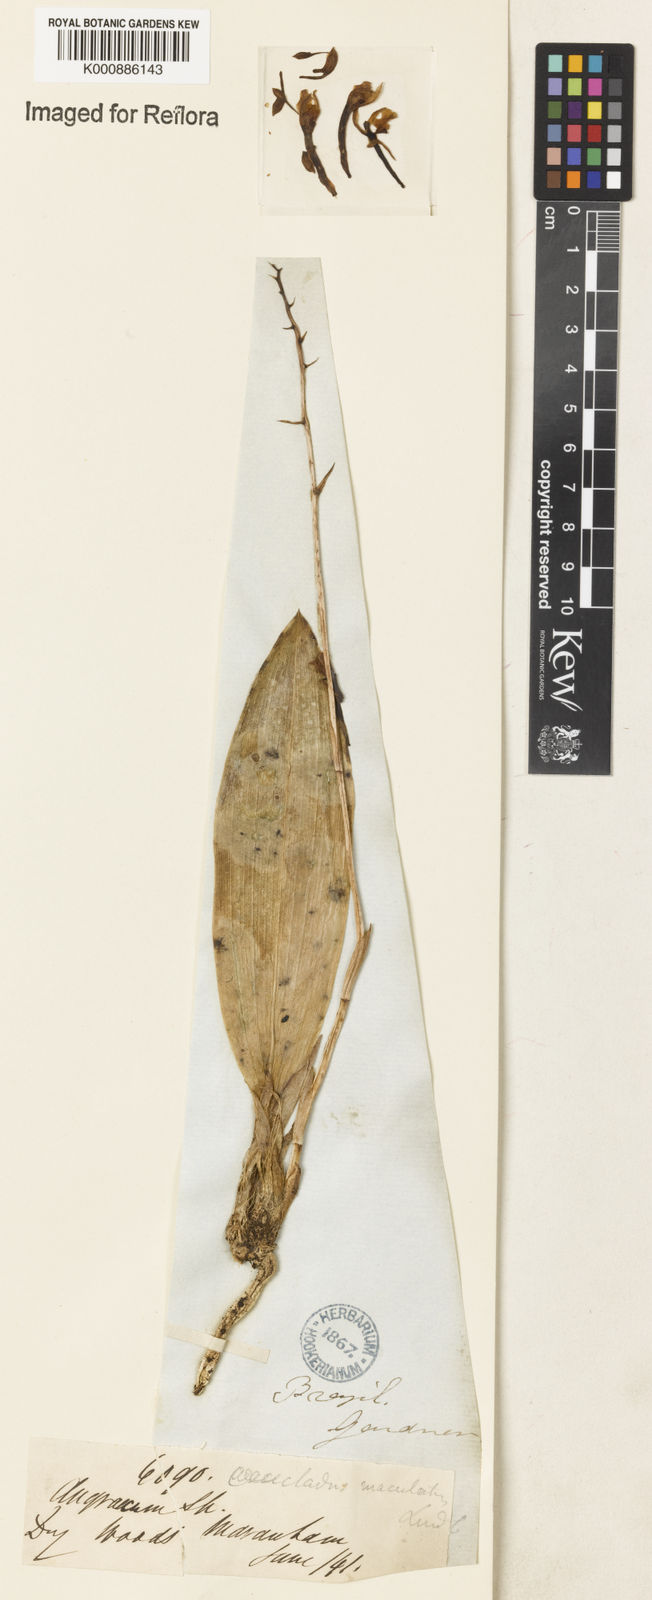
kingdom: Plantae
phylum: Tracheophyta
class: Liliopsida
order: Asparagales
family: Orchidaceae
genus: Eulophia
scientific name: Eulophia maculata
